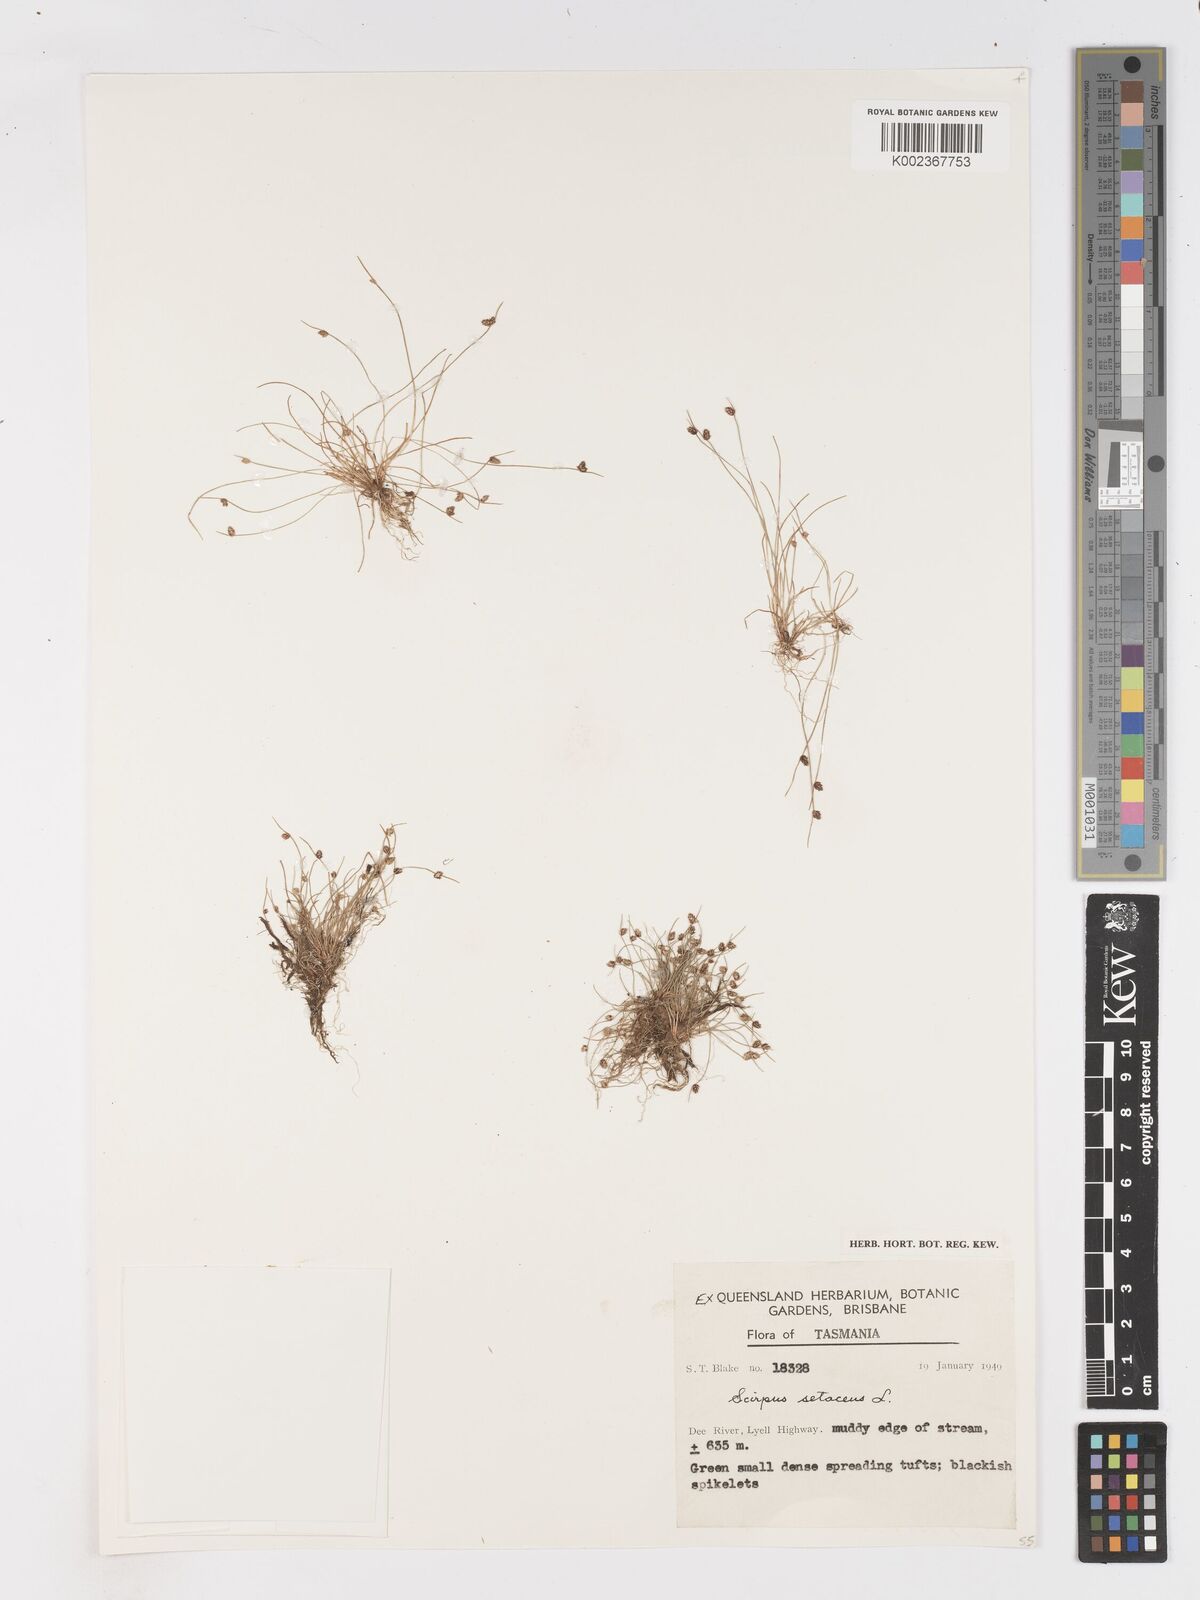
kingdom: Plantae
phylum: Tracheophyta
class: Liliopsida
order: Poales
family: Cyperaceae
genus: Isolepis
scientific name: Isolepis setacea
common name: Bristle club-rush
